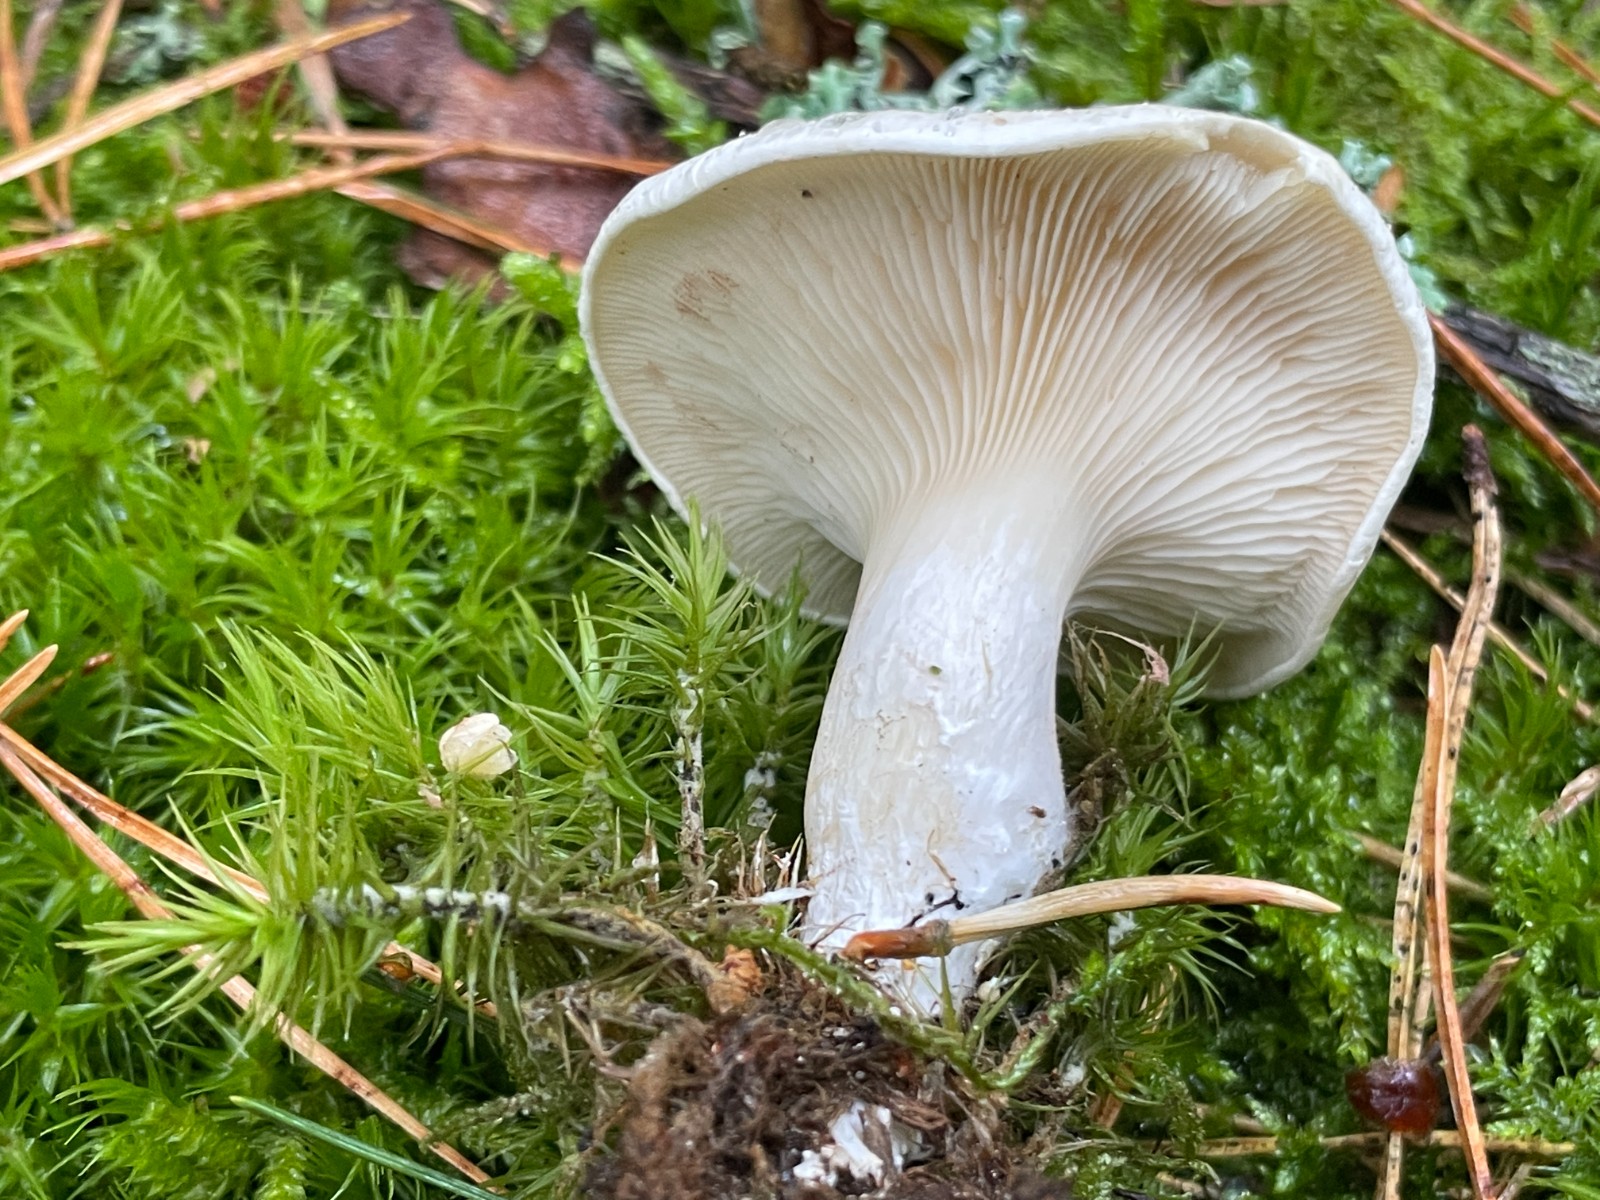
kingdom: Fungi
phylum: Basidiomycota
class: Agaricomycetes
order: Agaricales
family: Entolomataceae
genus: Clitopilus
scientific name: Clitopilus prunulus
